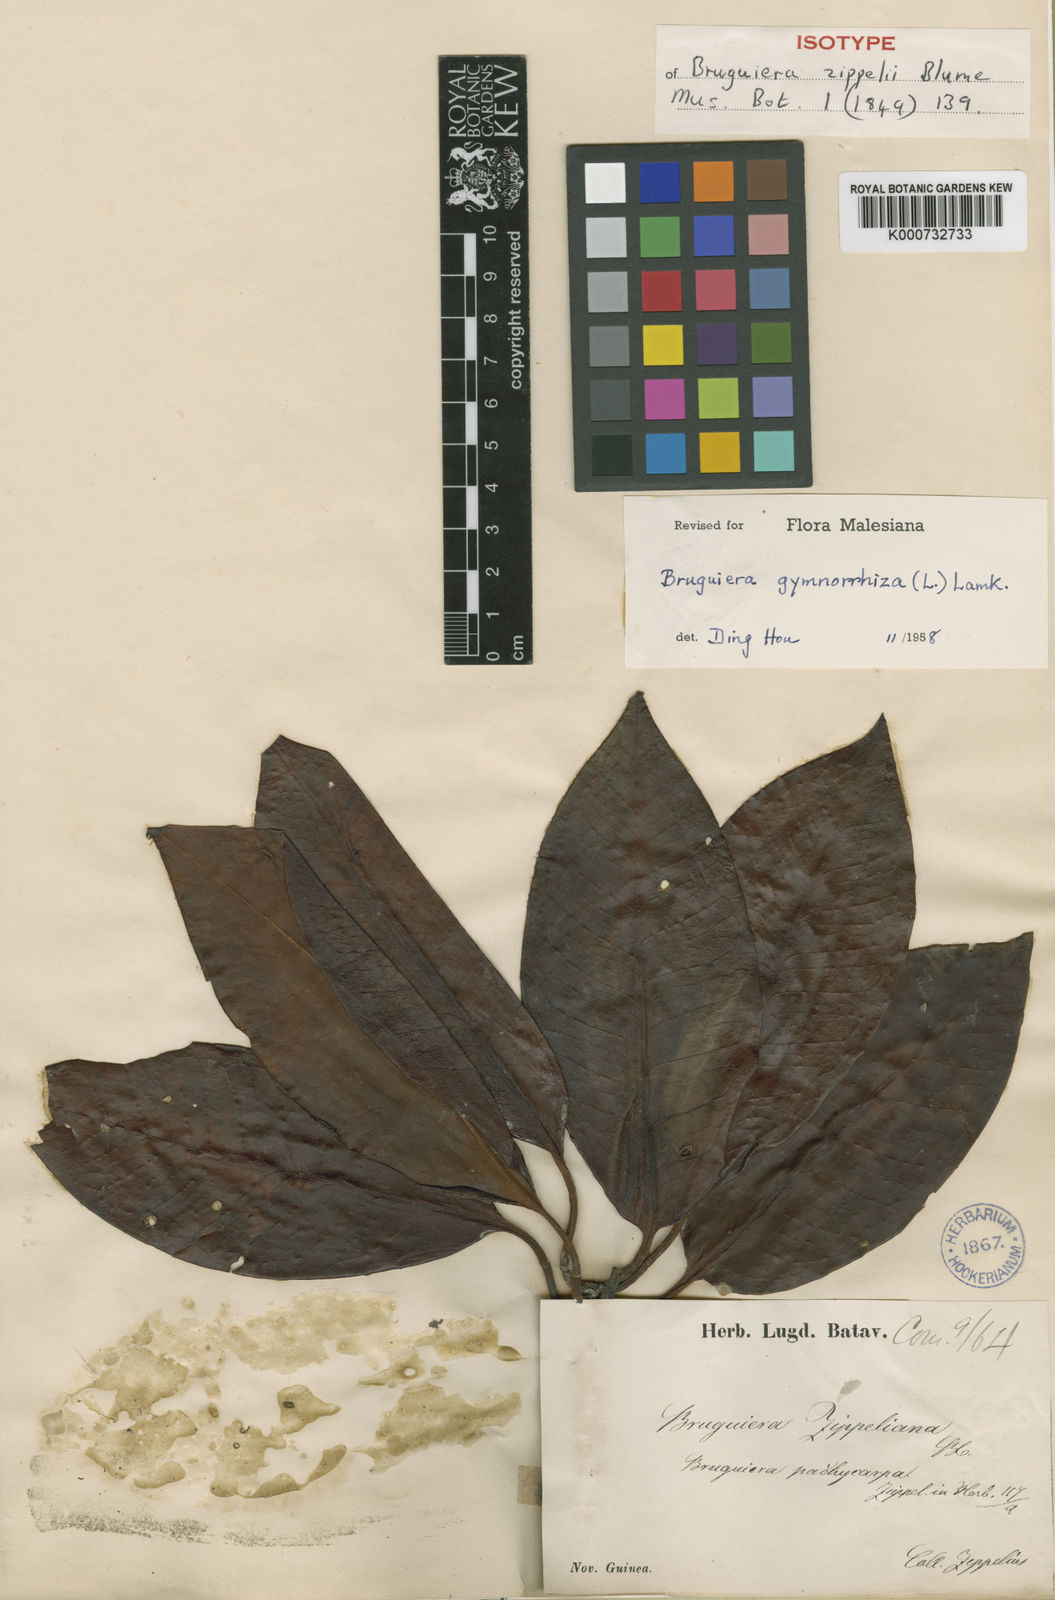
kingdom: Plantae
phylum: Tracheophyta
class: Magnoliopsida
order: Malpighiales
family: Rhizophoraceae
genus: Bruguiera
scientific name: Bruguiera
